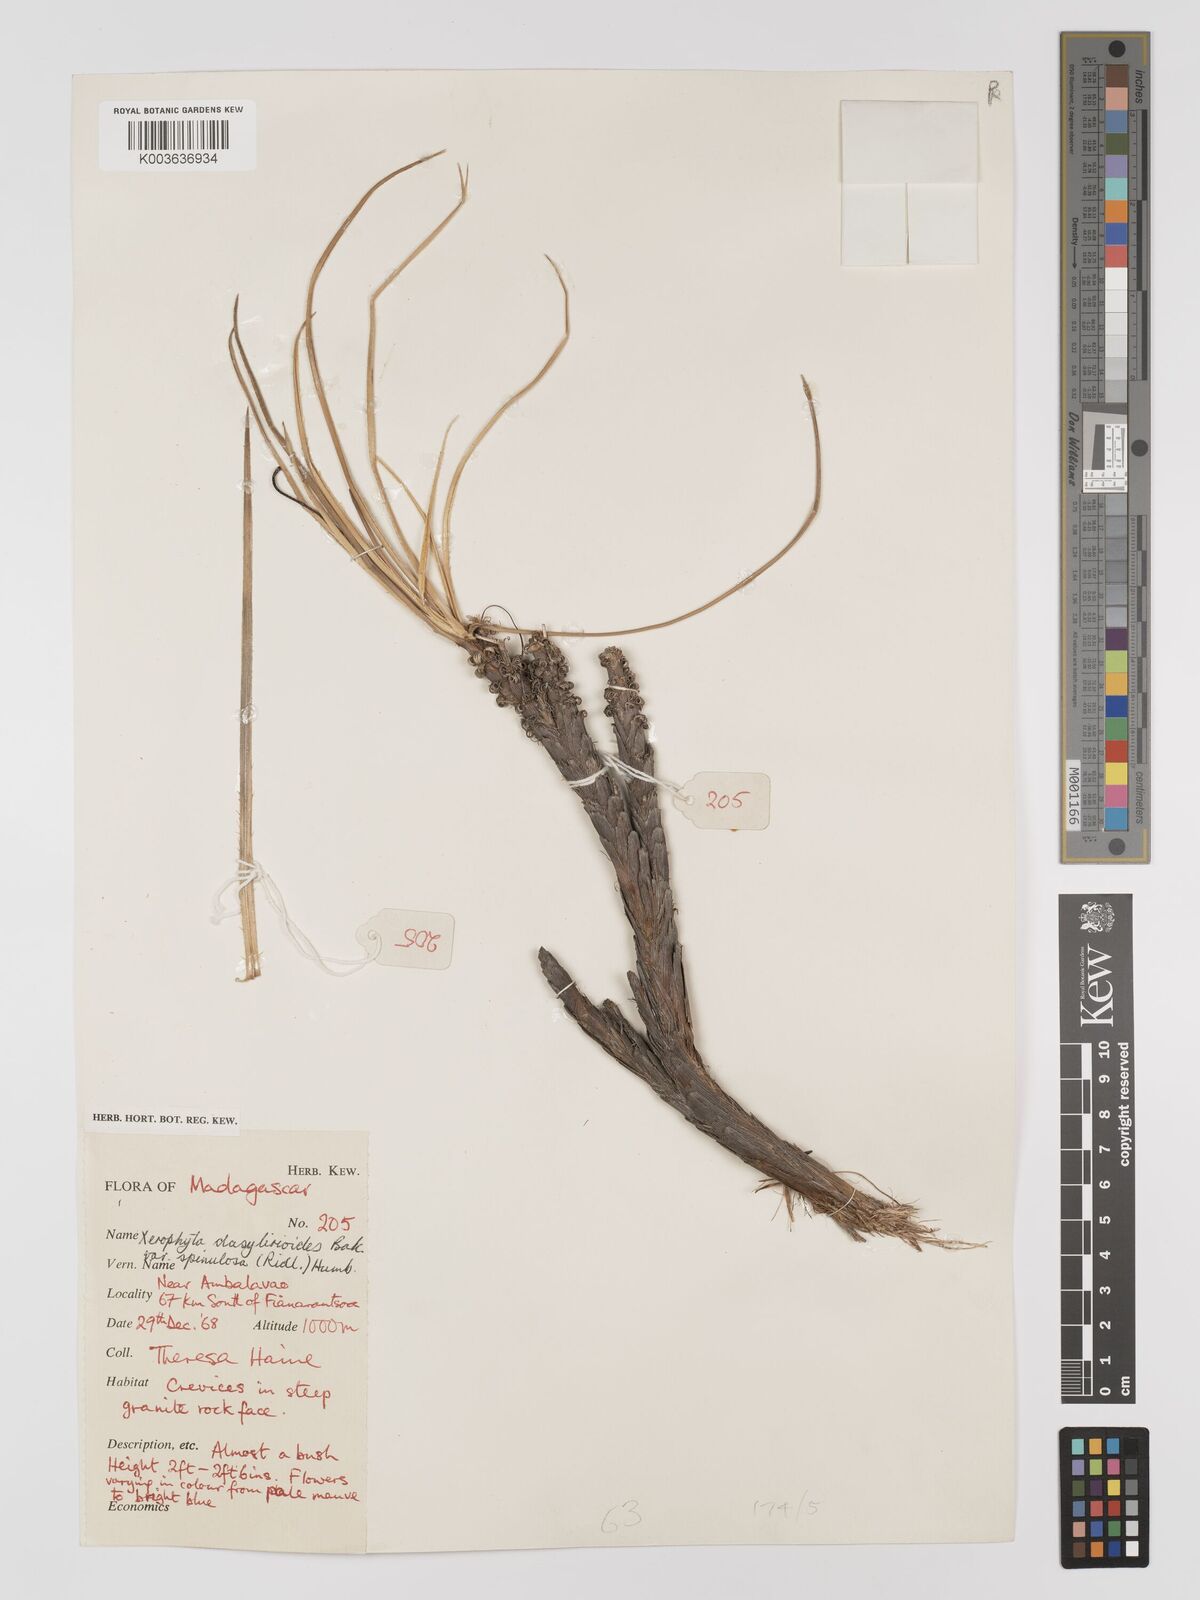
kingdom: Plantae
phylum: Tracheophyta
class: Liliopsida
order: Pandanales
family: Velloziaceae
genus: Xerophyta
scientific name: Xerophyta pectinata
